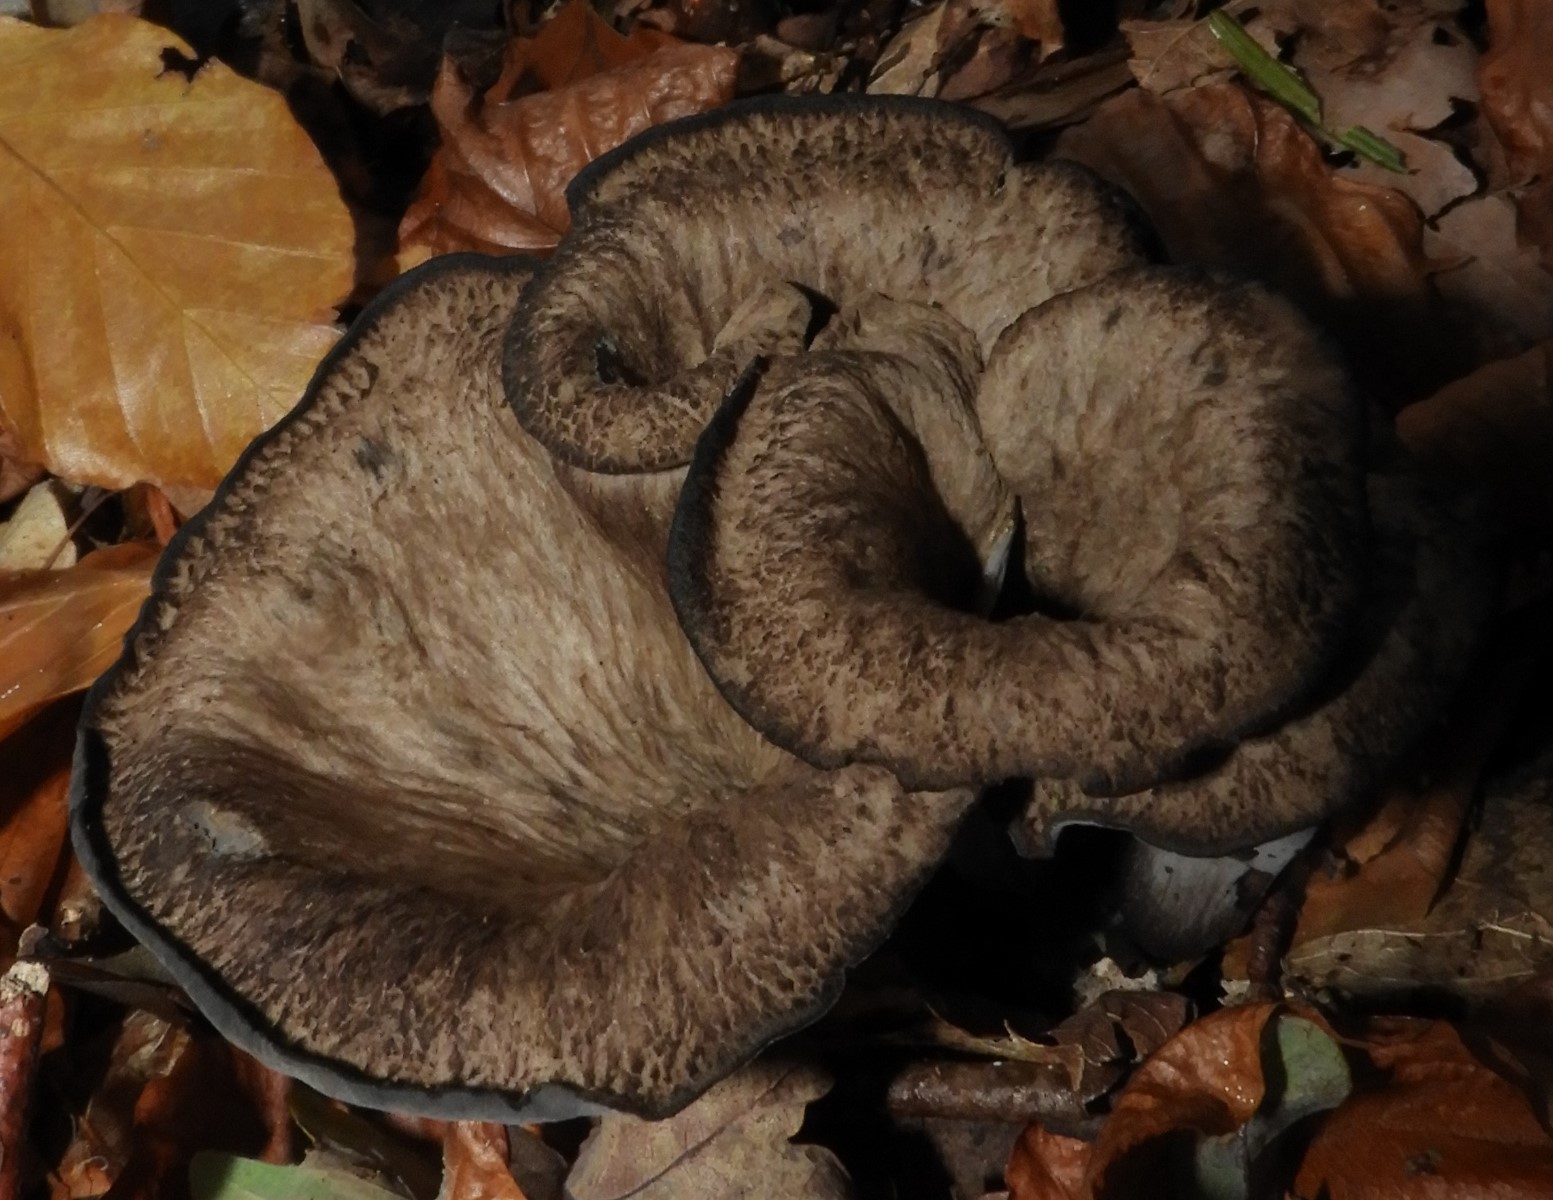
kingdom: Fungi
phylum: Basidiomycota
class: Agaricomycetes
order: Cantharellales
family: Hydnaceae
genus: Craterellus
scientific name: Craterellus cornucopioides
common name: trompetsvamp
